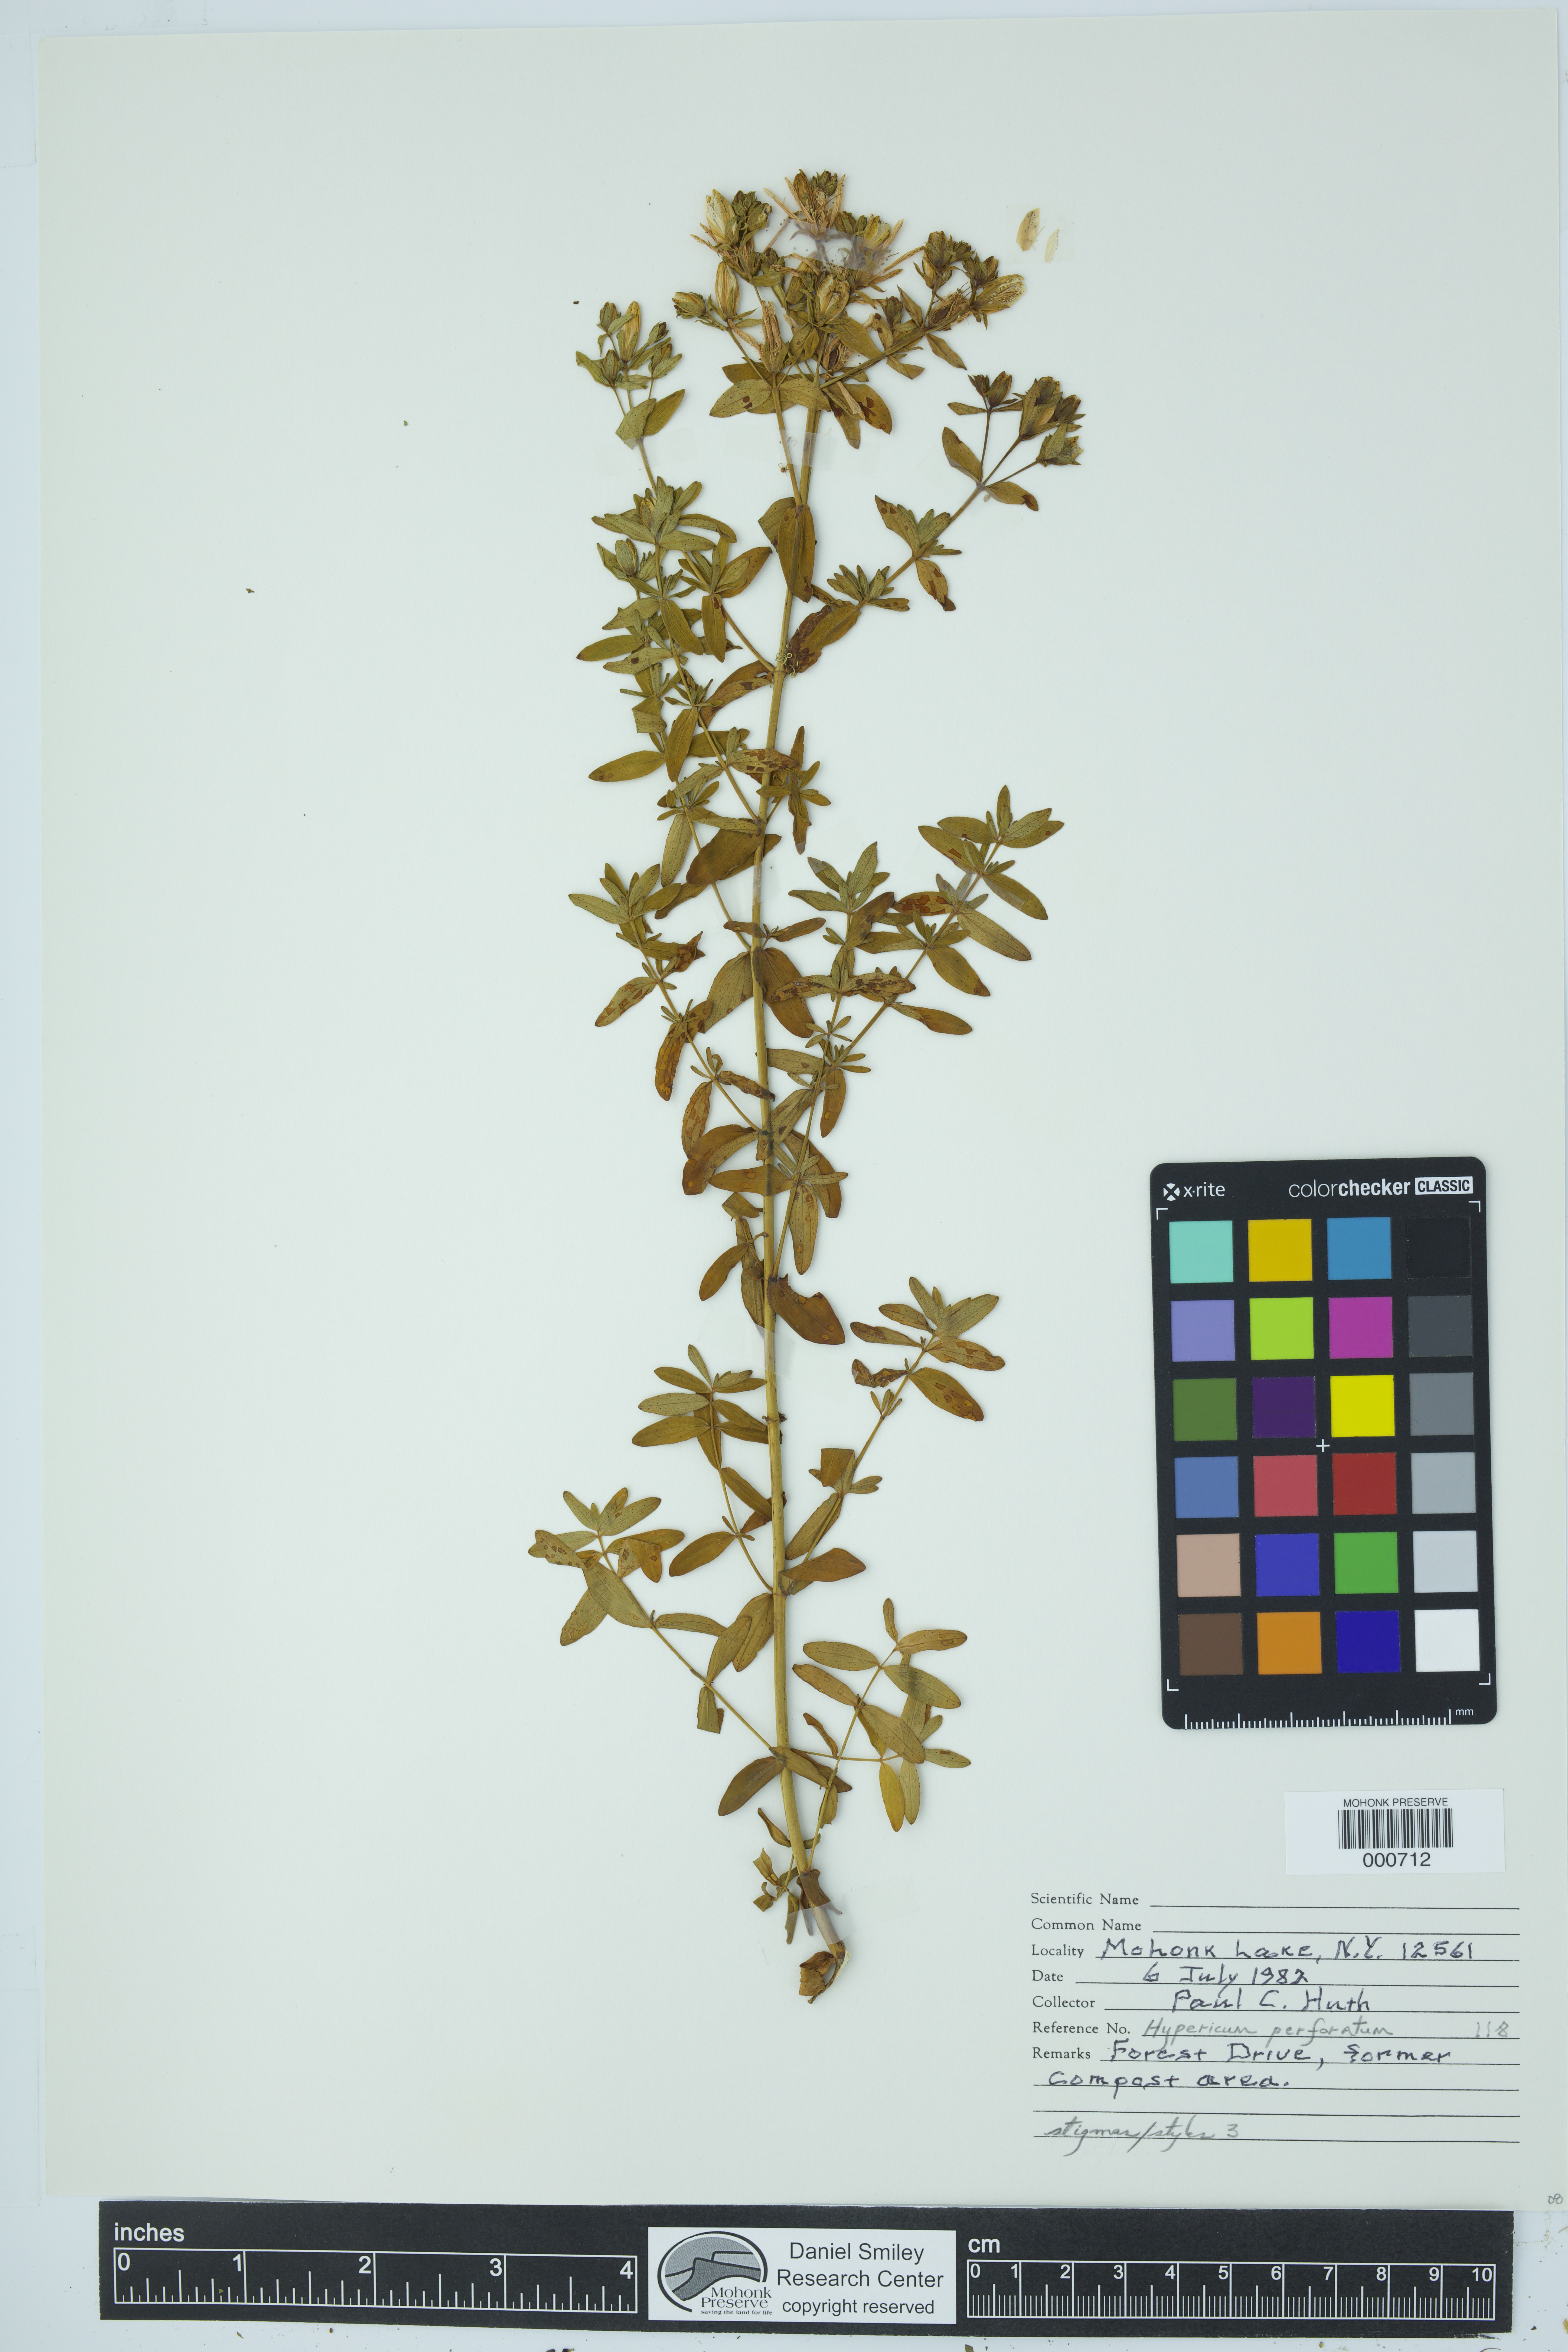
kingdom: Plantae
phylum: Tracheophyta
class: Magnoliopsida
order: Malpighiales
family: Hypericaceae
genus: Hypericum
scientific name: Hypericum perforatum
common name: Common st. johnswort
